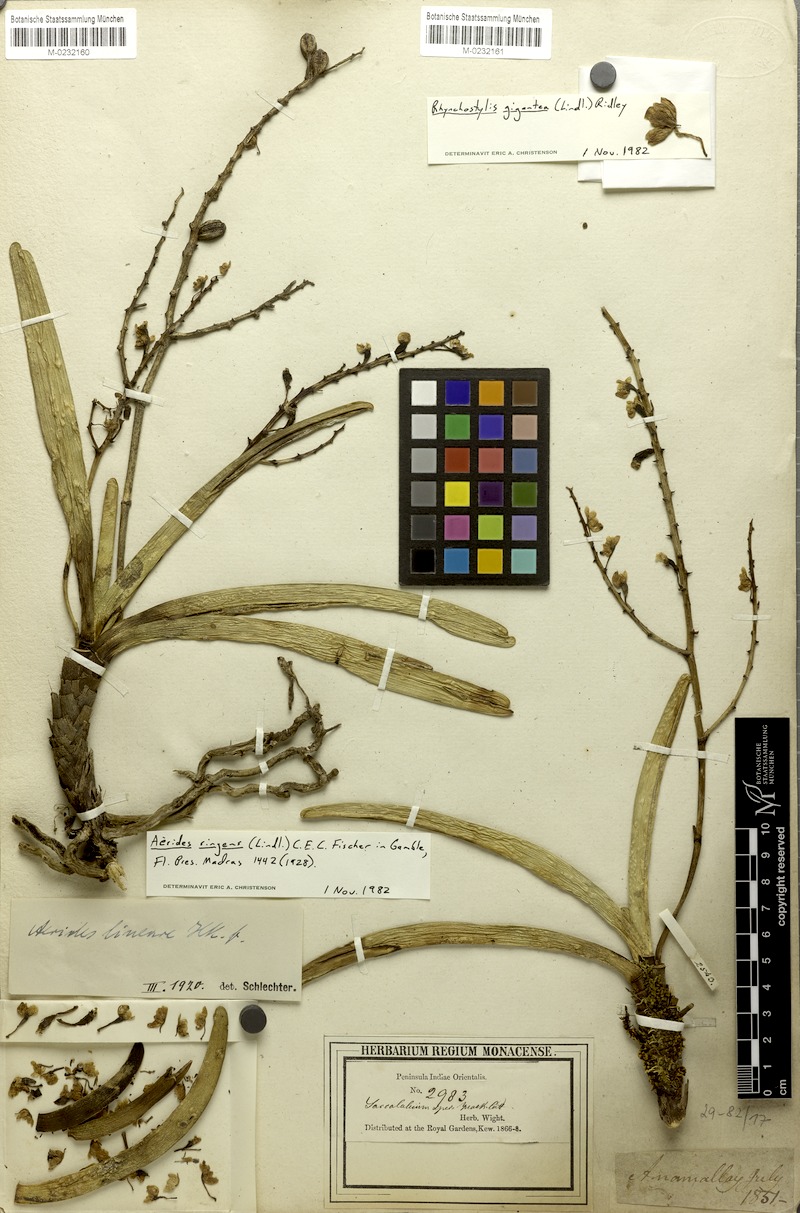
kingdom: Plantae
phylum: Tracheophyta
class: Liliopsida
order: Asparagales
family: Orchidaceae
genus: Rhynchostylis
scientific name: Rhynchostylis gigantea
